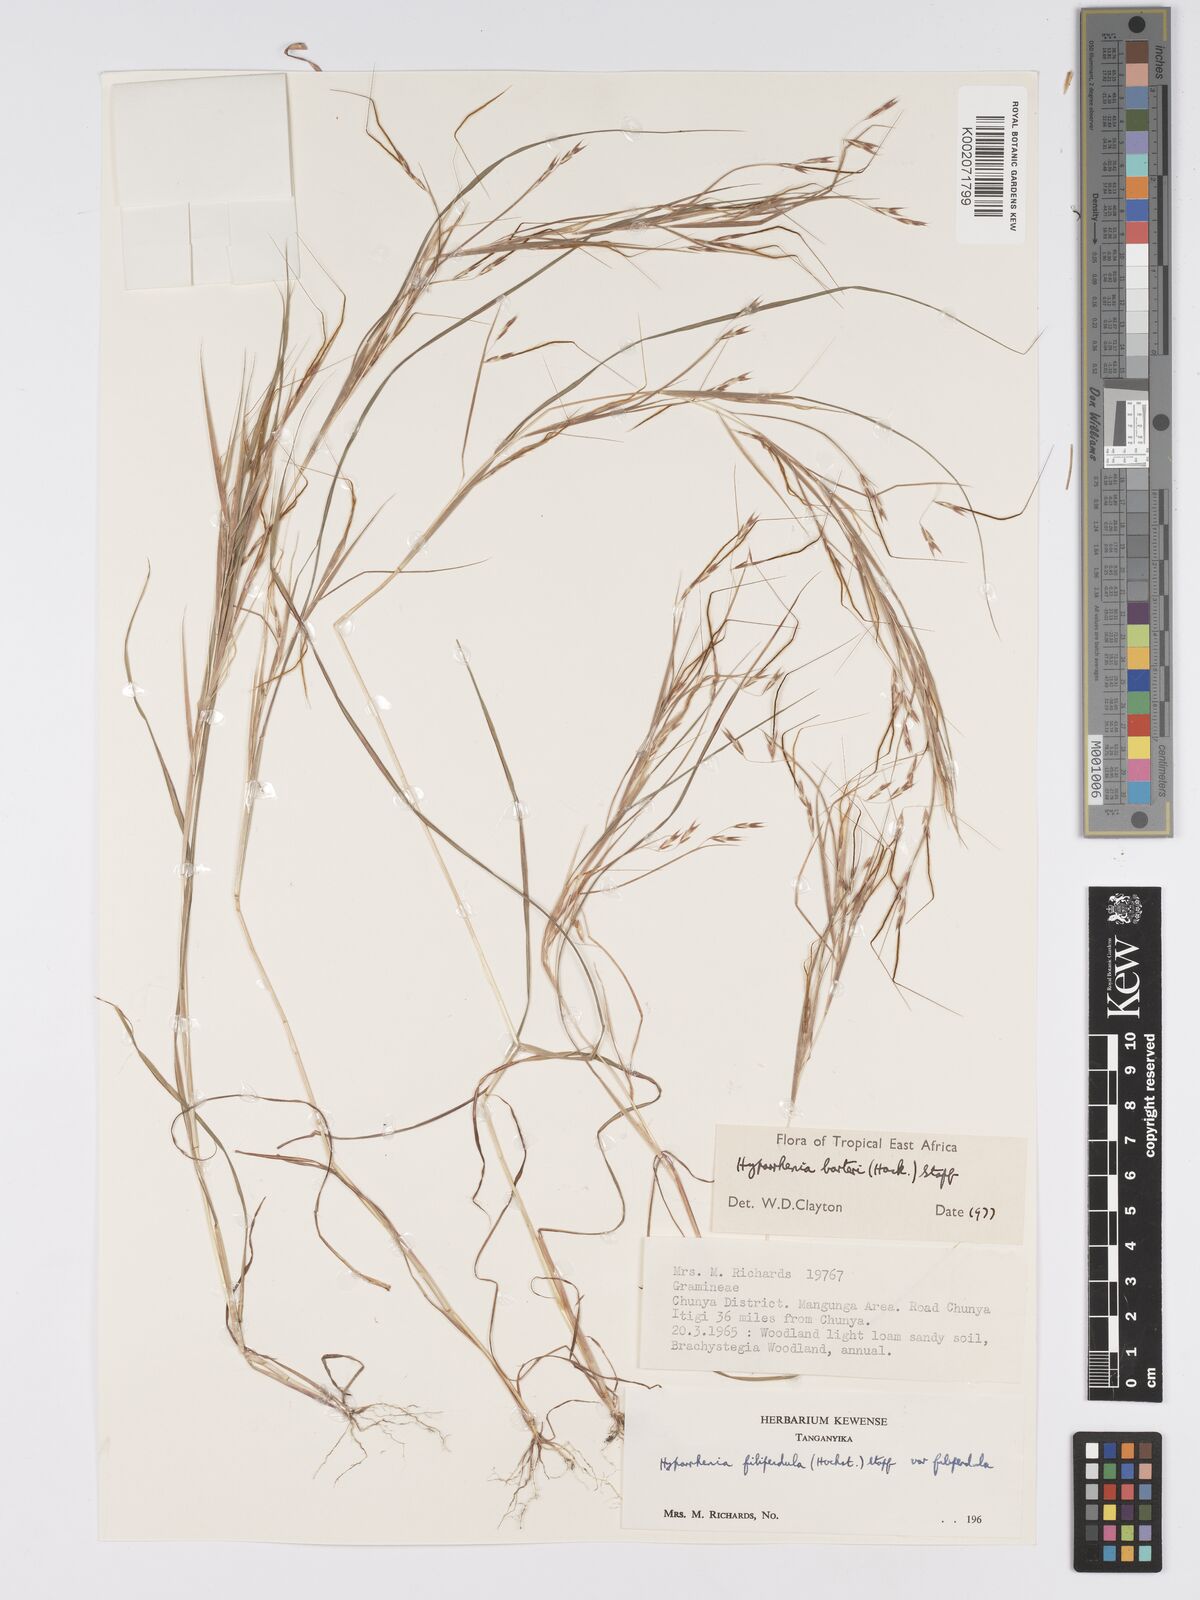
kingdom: Plantae
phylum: Tracheophyta
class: Liliopsida
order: Poales
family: Poaceae
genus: Hyparrhenia
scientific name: Hyparrhenia barteri
